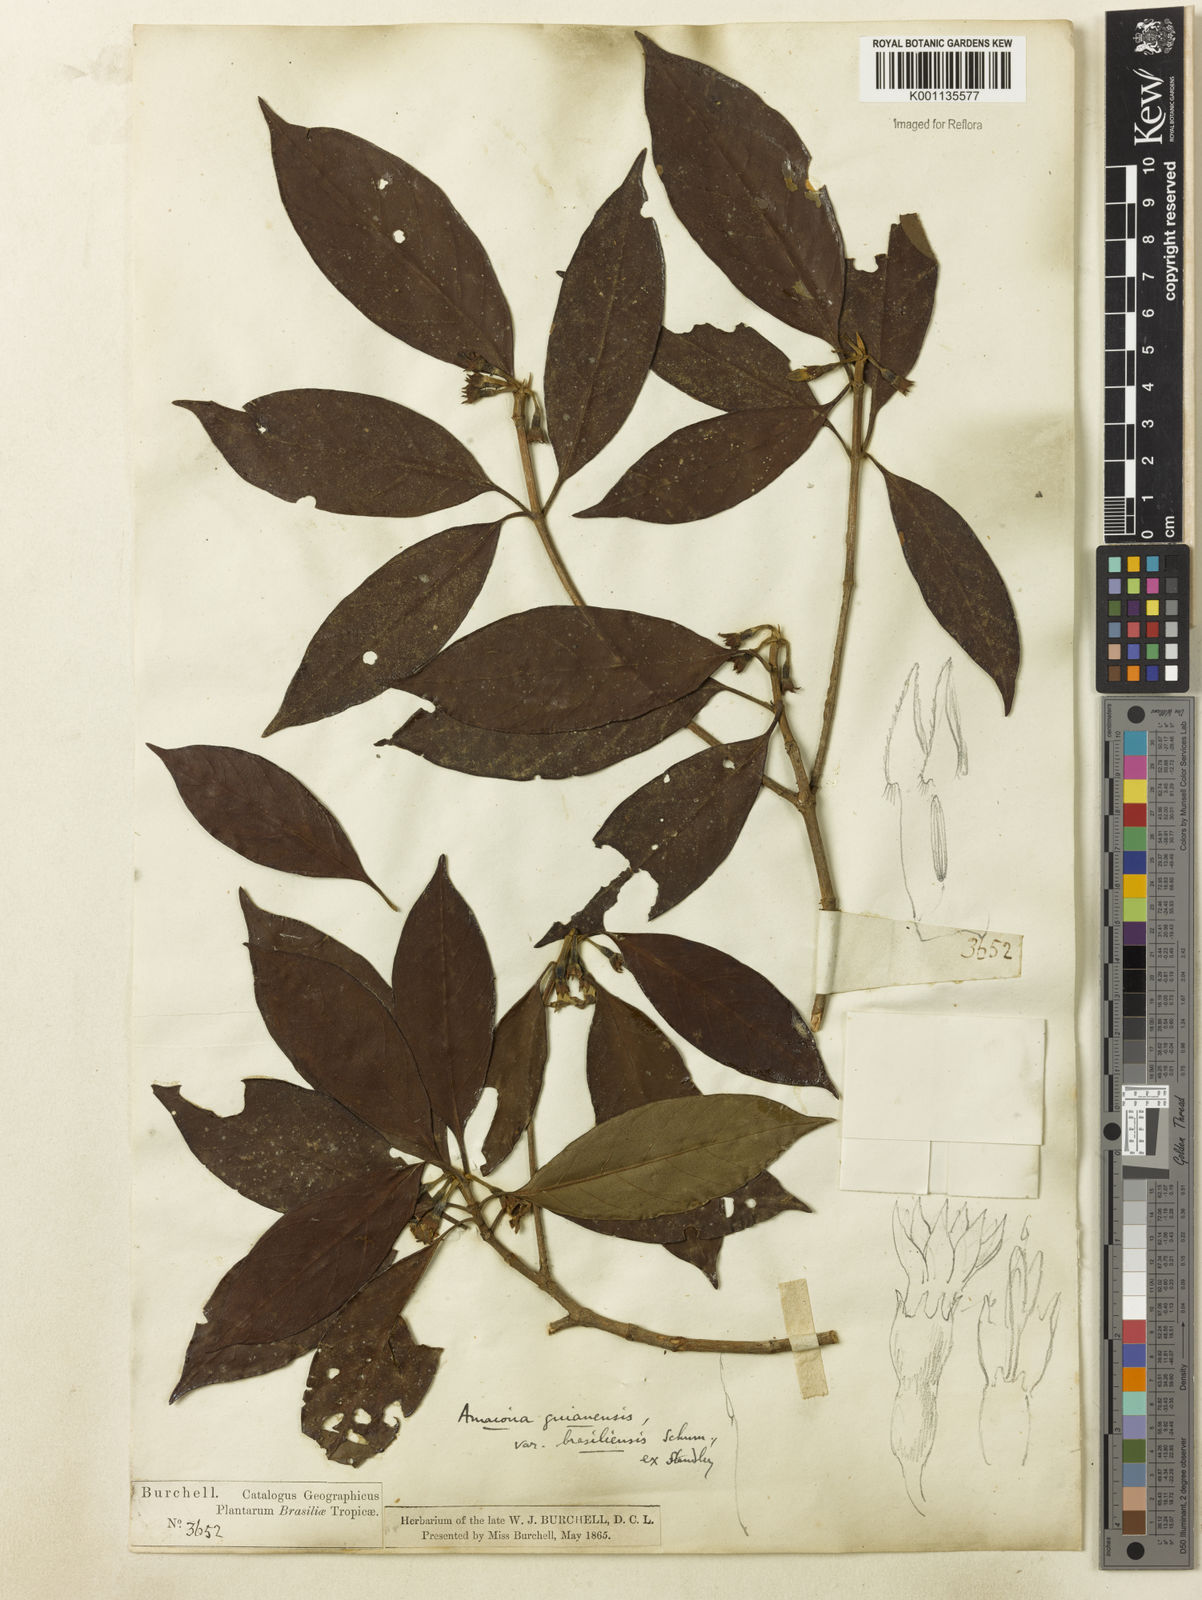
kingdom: Plantae
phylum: Tracheophyta
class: Magnoliopsida
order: Gentianales
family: Rubiaceae
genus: Amaioua
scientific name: Amaioua intermedia
